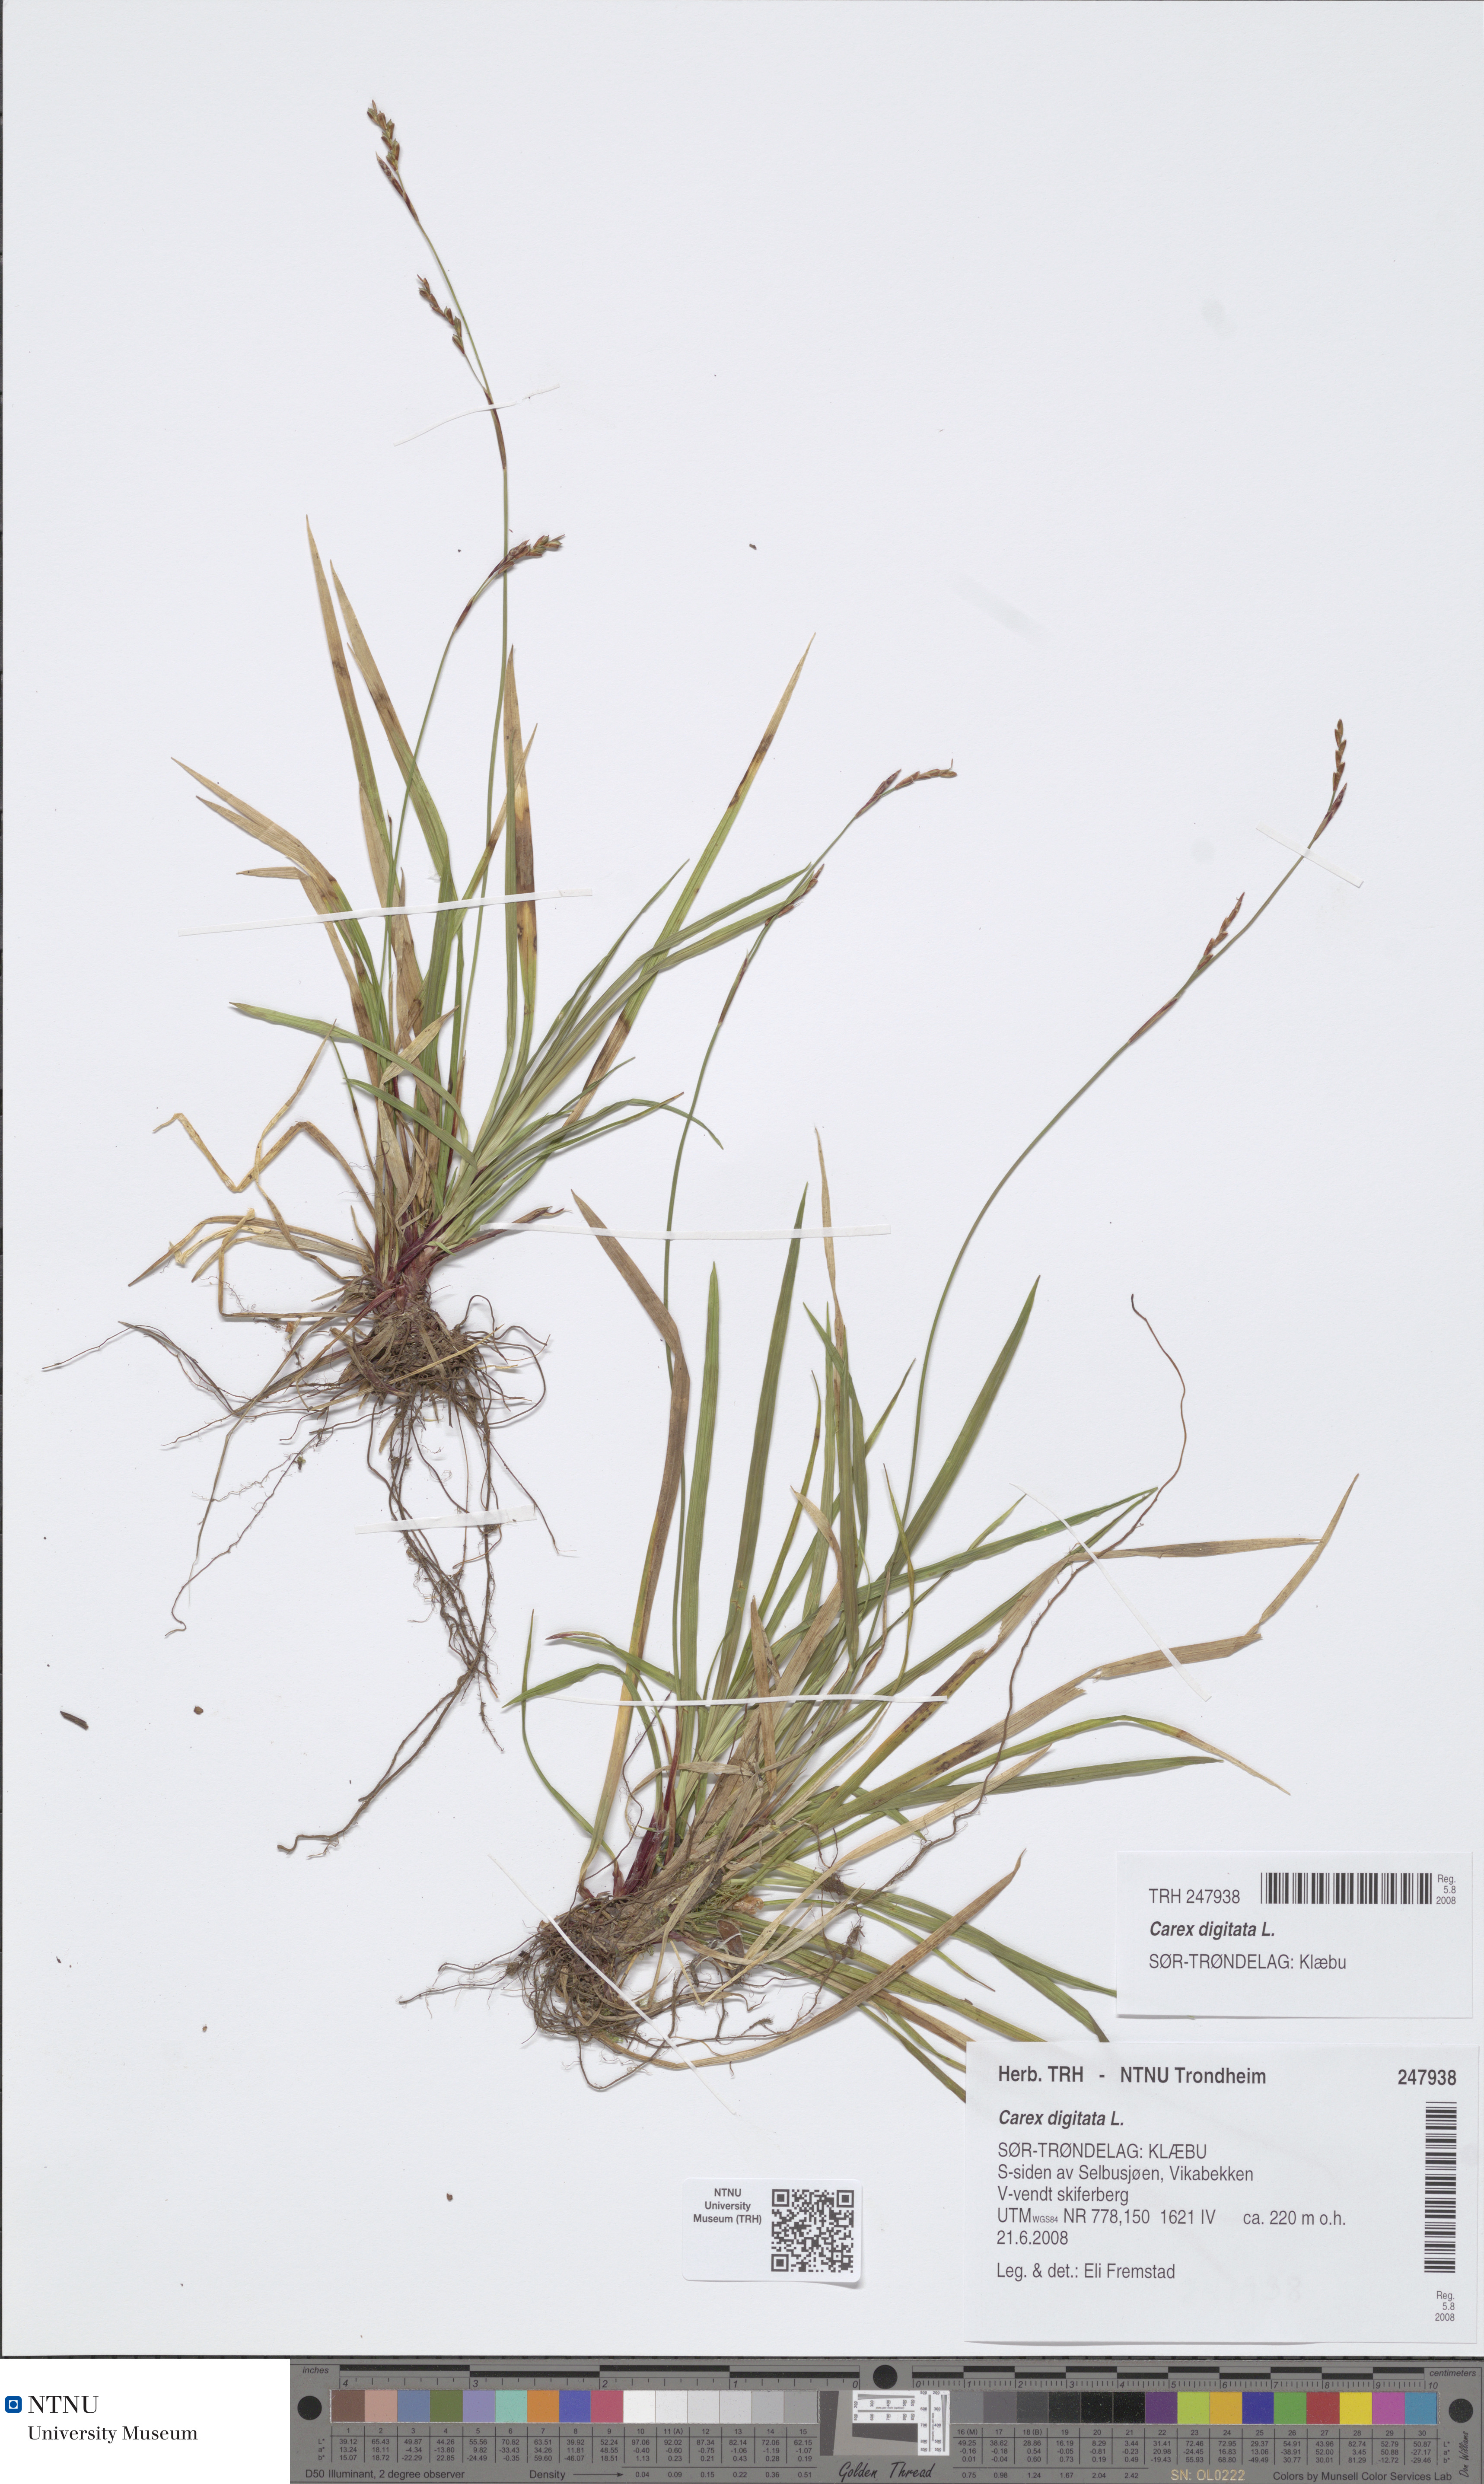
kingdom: Plantae
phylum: Tracheophyta
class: Liliopsida
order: Poales
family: Cyperaceae
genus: Carex
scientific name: Carex digitata
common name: Fingered sedge
